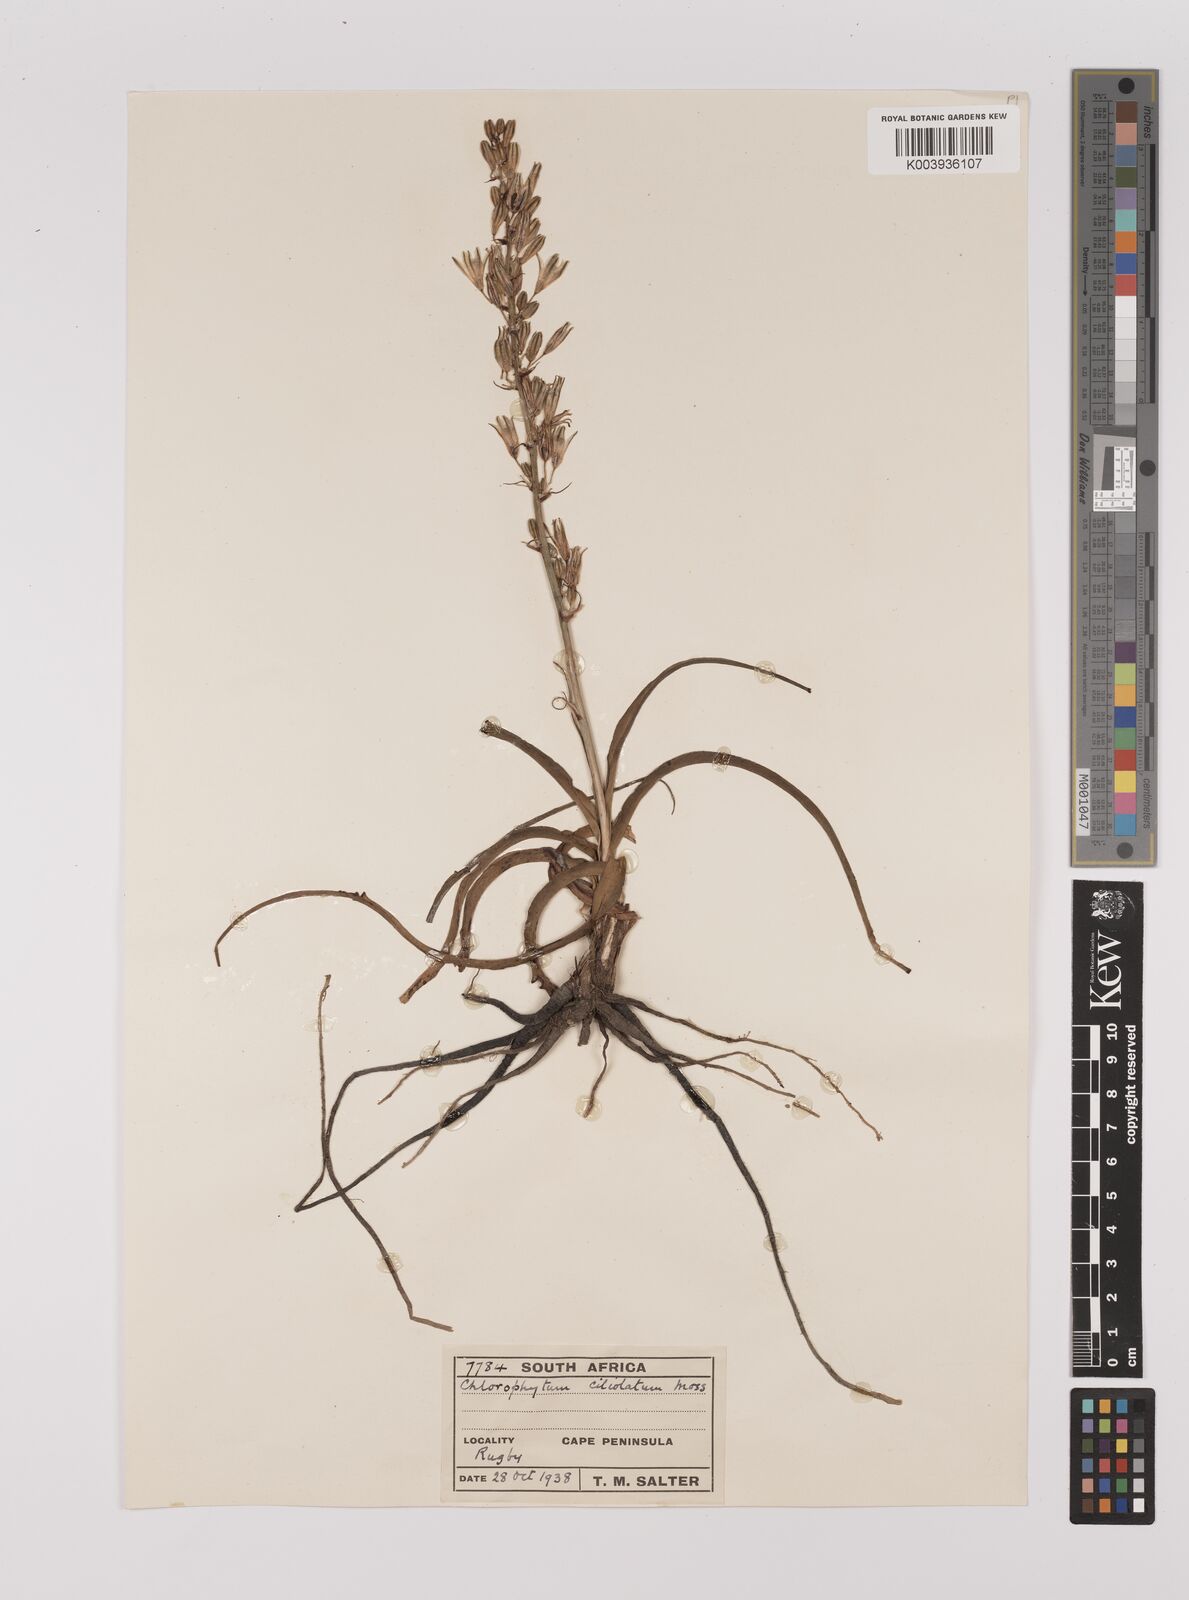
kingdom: Plantae
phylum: Tracheophyta
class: Liliopsida
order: Asparagales
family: Asparagaceae
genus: Chlorophytum
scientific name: Chlorophytum triflorum
